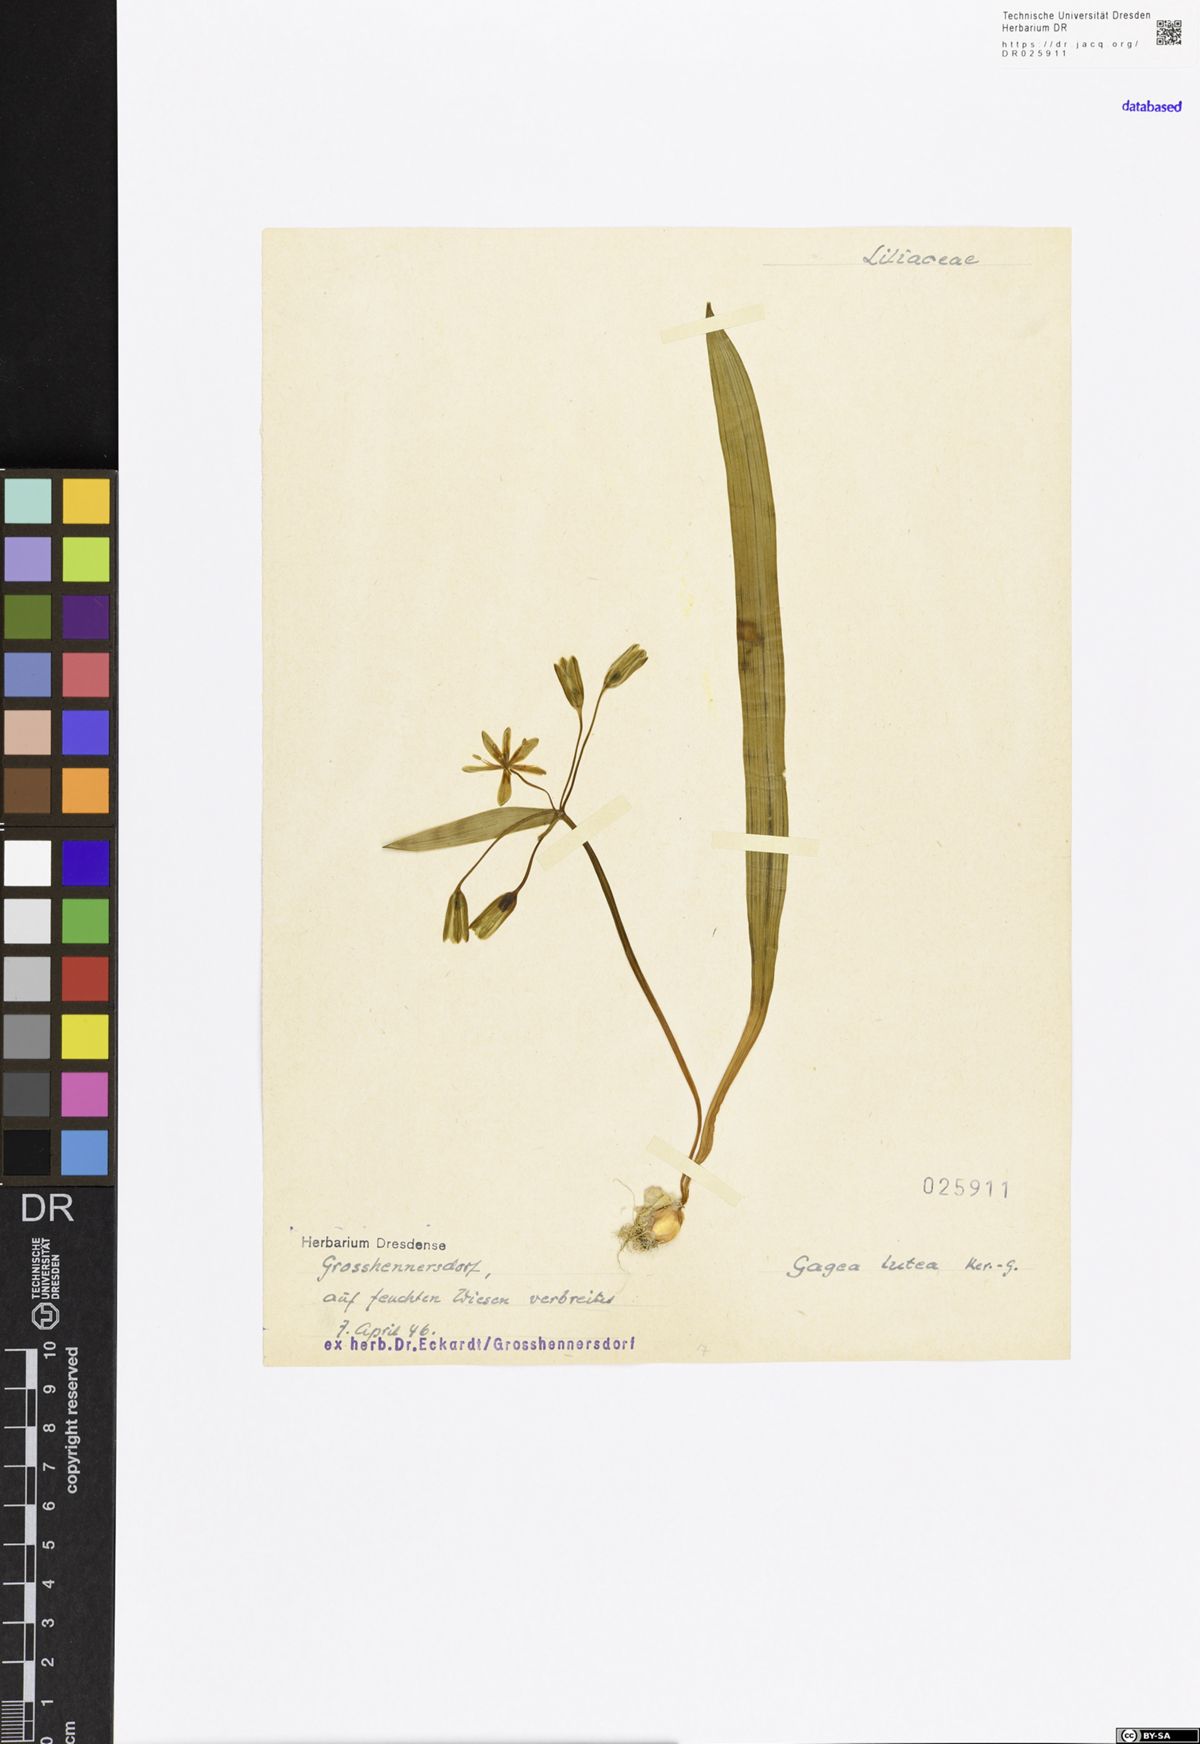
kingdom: Plantae
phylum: Tracheophyta
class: Liliopsida
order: Liliales
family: Liliaceae
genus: Gagea
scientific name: Gagea lutea
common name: Yellow star-of-bethlehem
